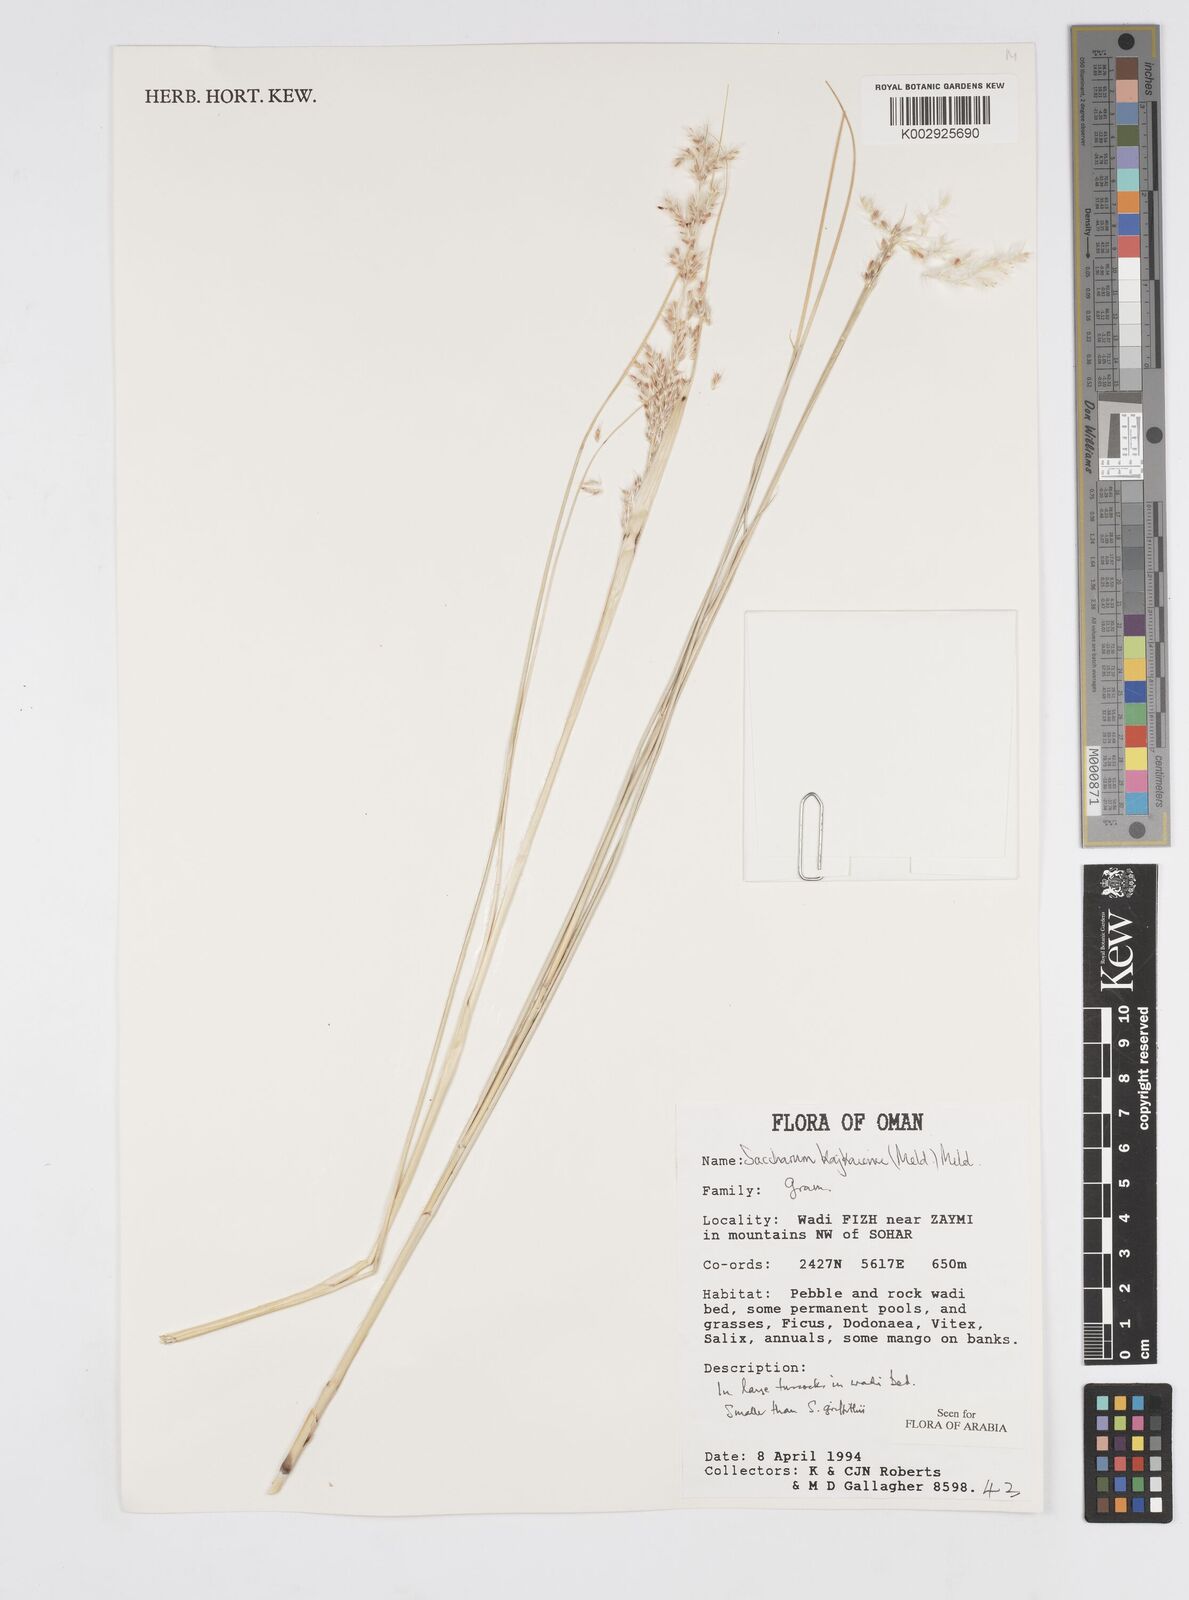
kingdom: Plantae
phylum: Tracheophyta
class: Liliopsida
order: Poales
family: Poaceae
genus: Saccharum
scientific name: Saccharum kajkaiense
